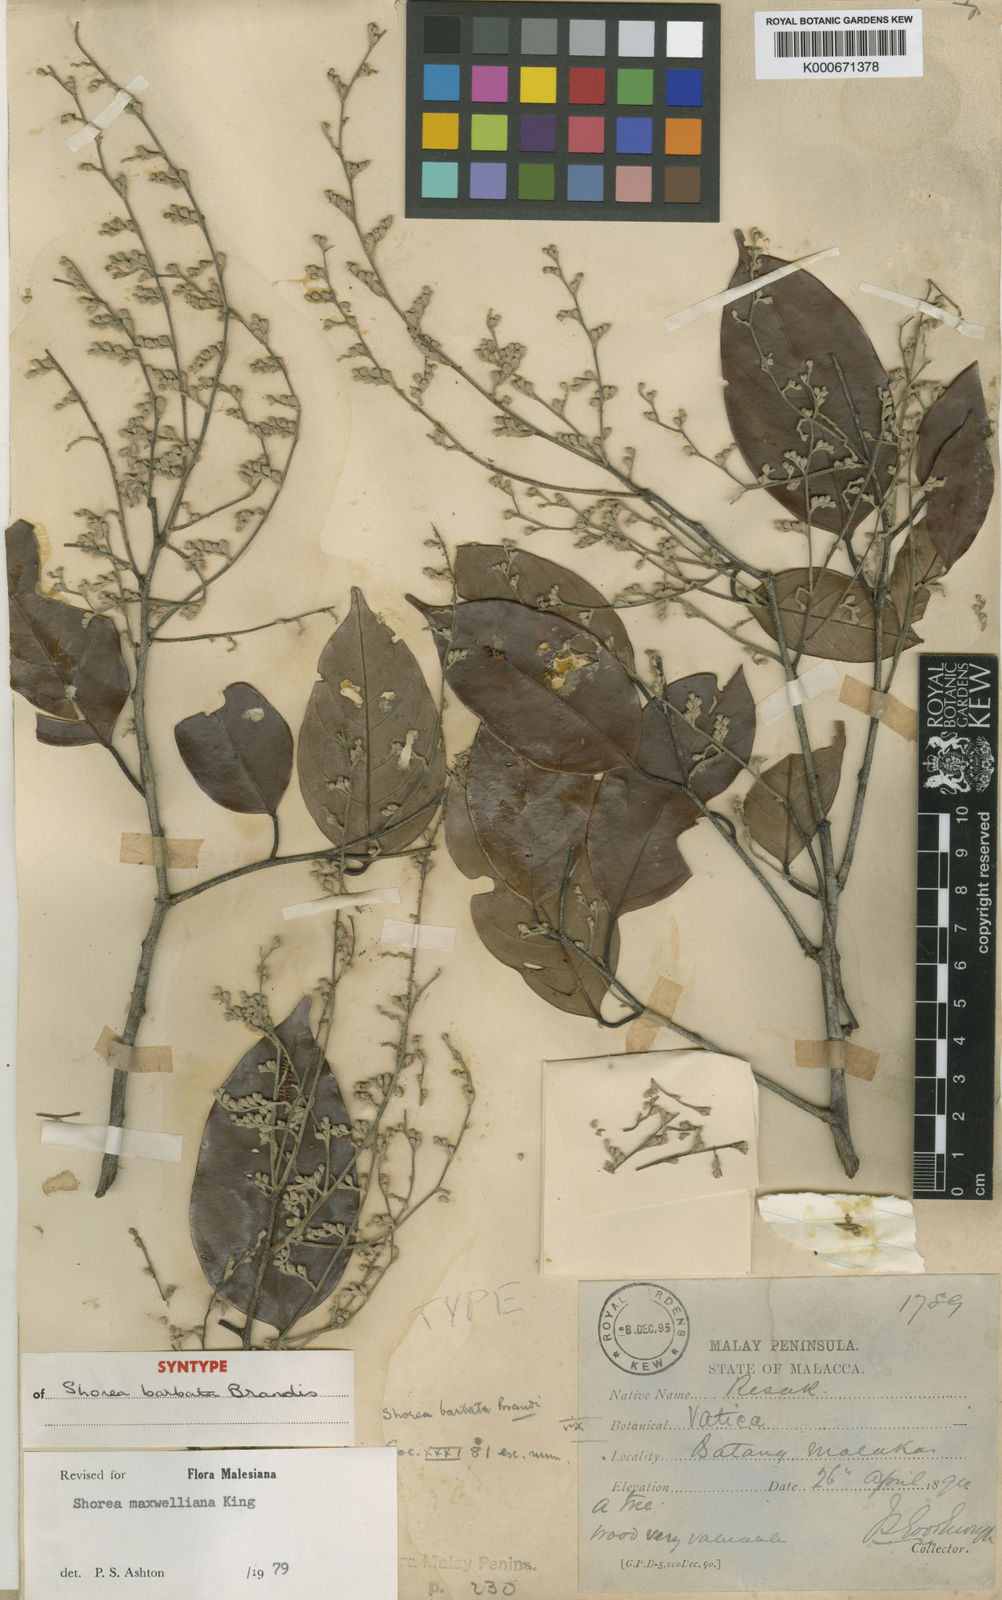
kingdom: Plantae
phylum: Tracheophyta
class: Magnoliopsida
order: Malvales
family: Dipterocarpaceae
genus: Shorea
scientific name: Shorea maxwelliana
